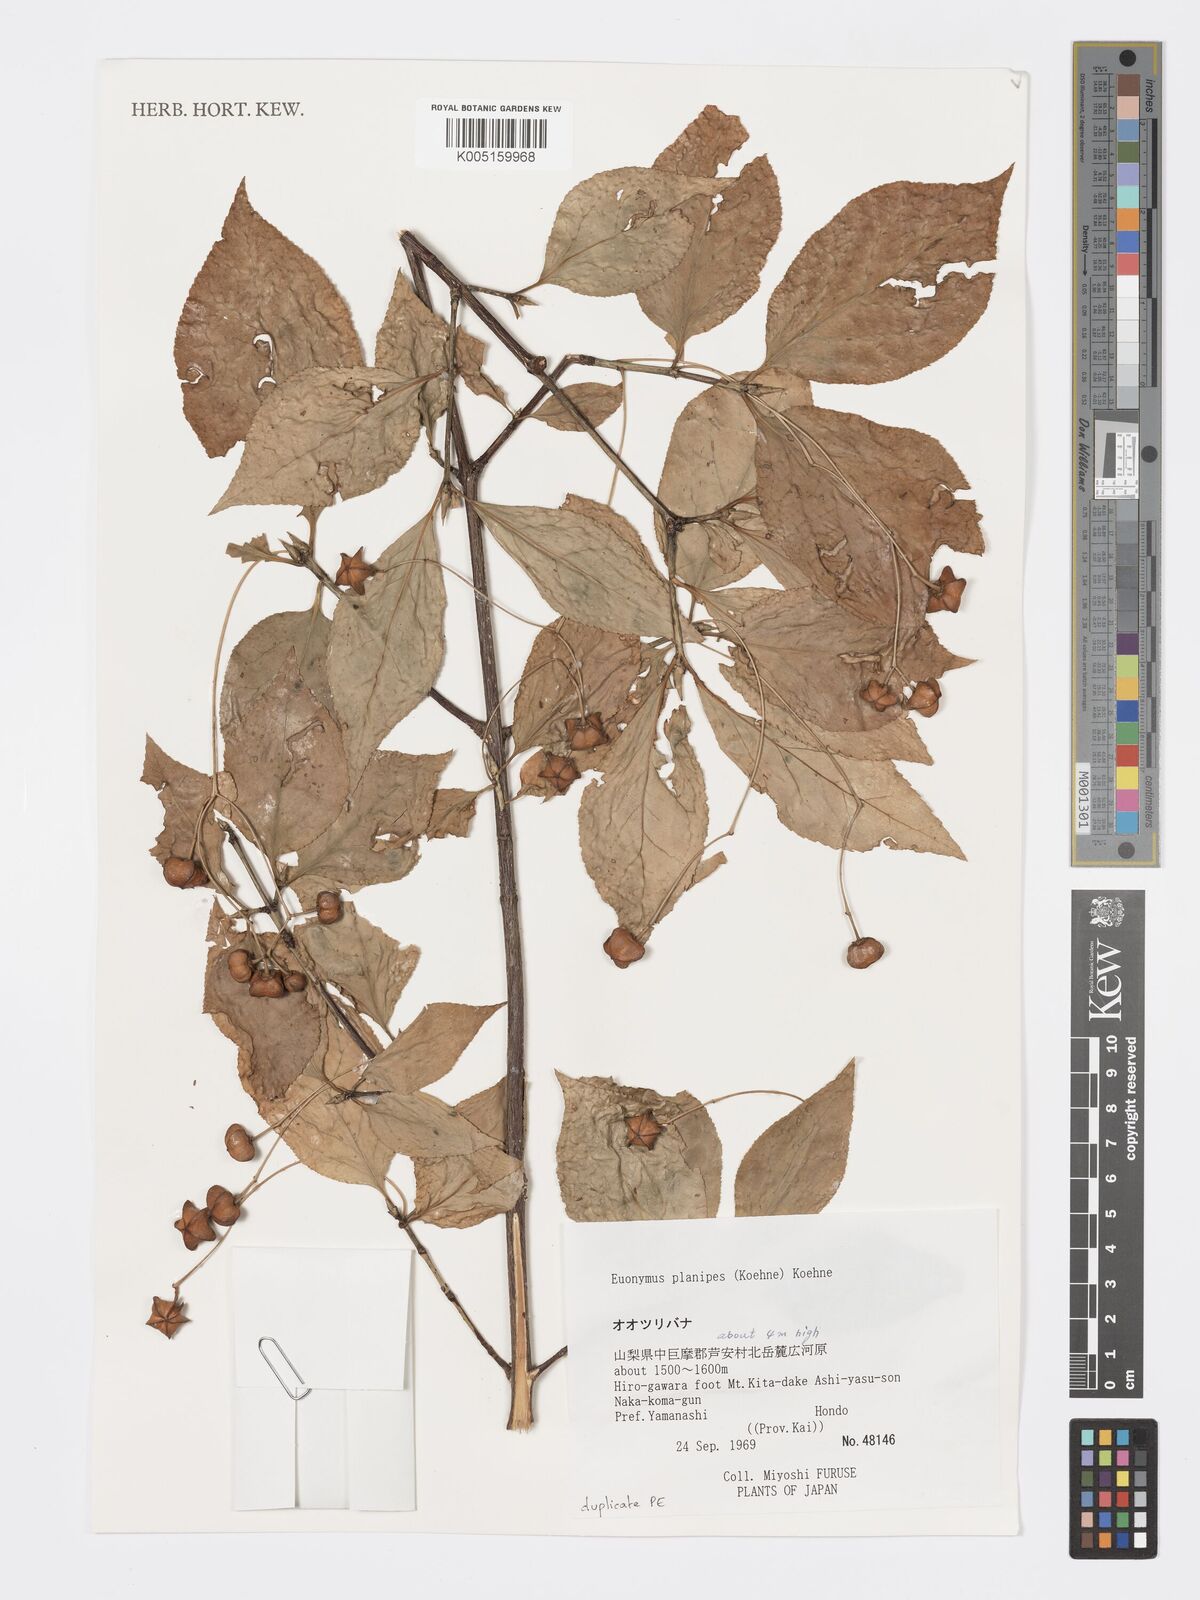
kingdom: Plantae
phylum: Tracheophyta
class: Magnoliopsida
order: Celastrales
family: Celastraceae
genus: Euonymus
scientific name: Euonymus sachalinensis
